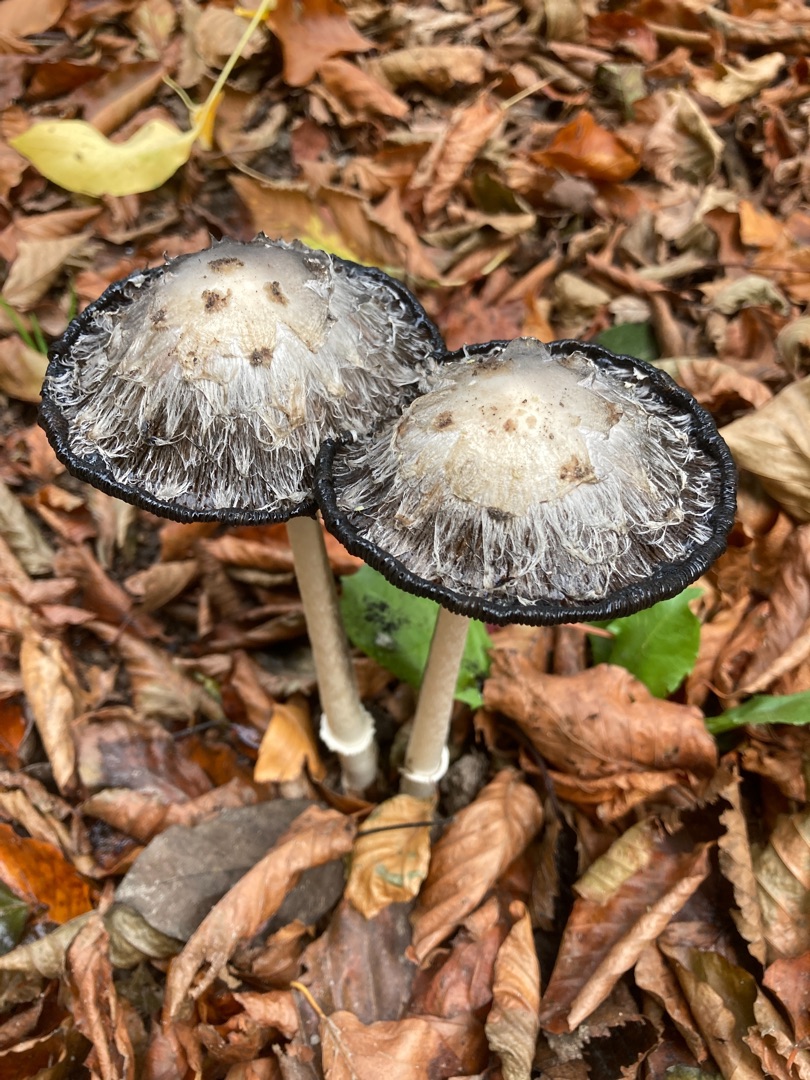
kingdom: Fungi
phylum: Basidiomycota
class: Agaricomycetes
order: Agaricales
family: Agaricaceae
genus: Coprinus
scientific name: Coprinus comatus
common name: Stor parykhat
